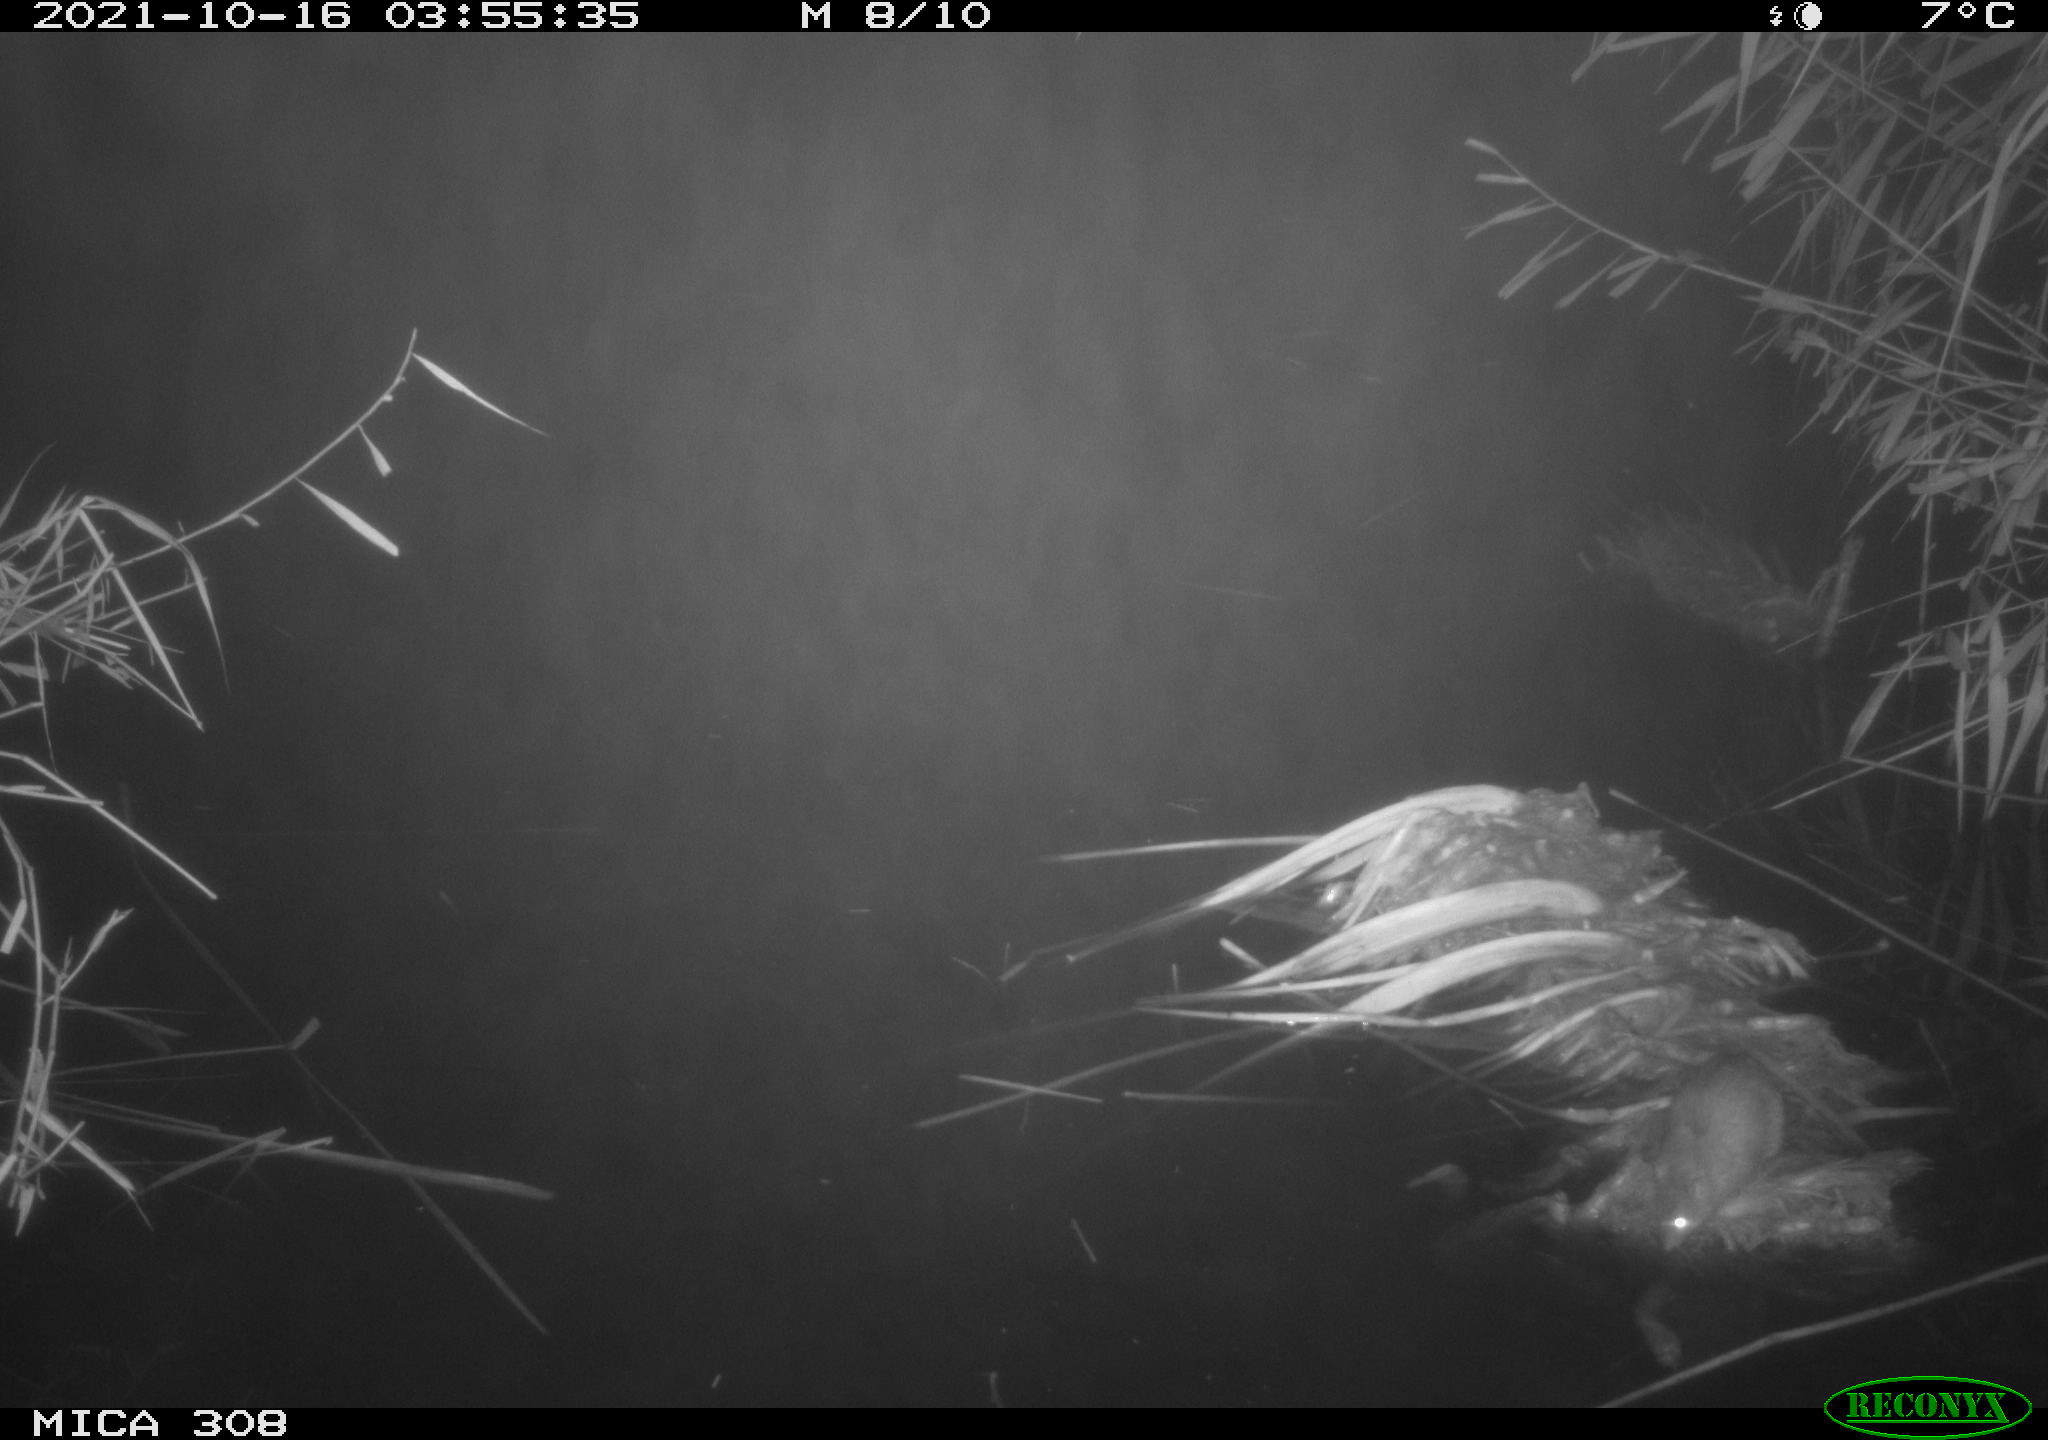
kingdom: Animalia
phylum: Chordata
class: Mammalia
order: Rodentia
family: Muridae
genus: Rattus
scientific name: Rattus norvegicus
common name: Brown rat
